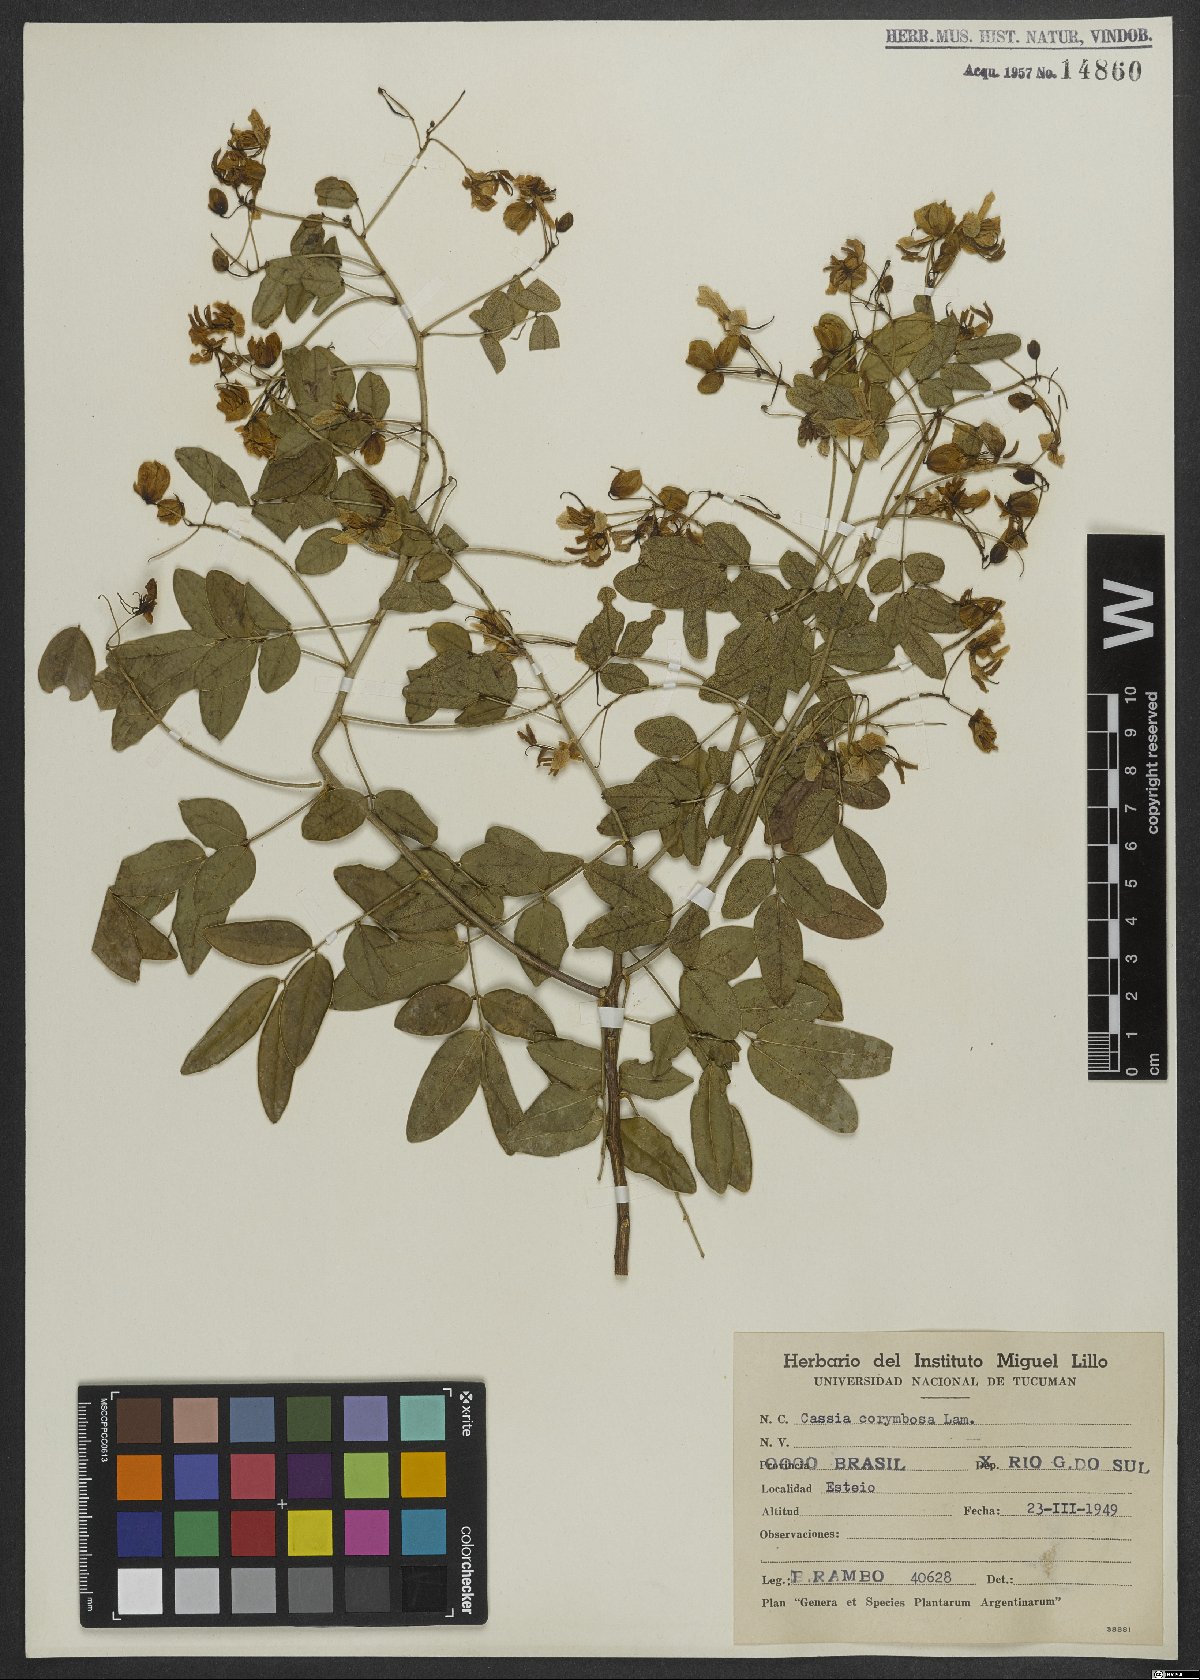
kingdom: Plantae
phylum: Tracheophyta
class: Magnoliopsida
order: Fabales
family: Fabaceae
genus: Senna
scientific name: Senna corymbosa
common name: Argentine senna
